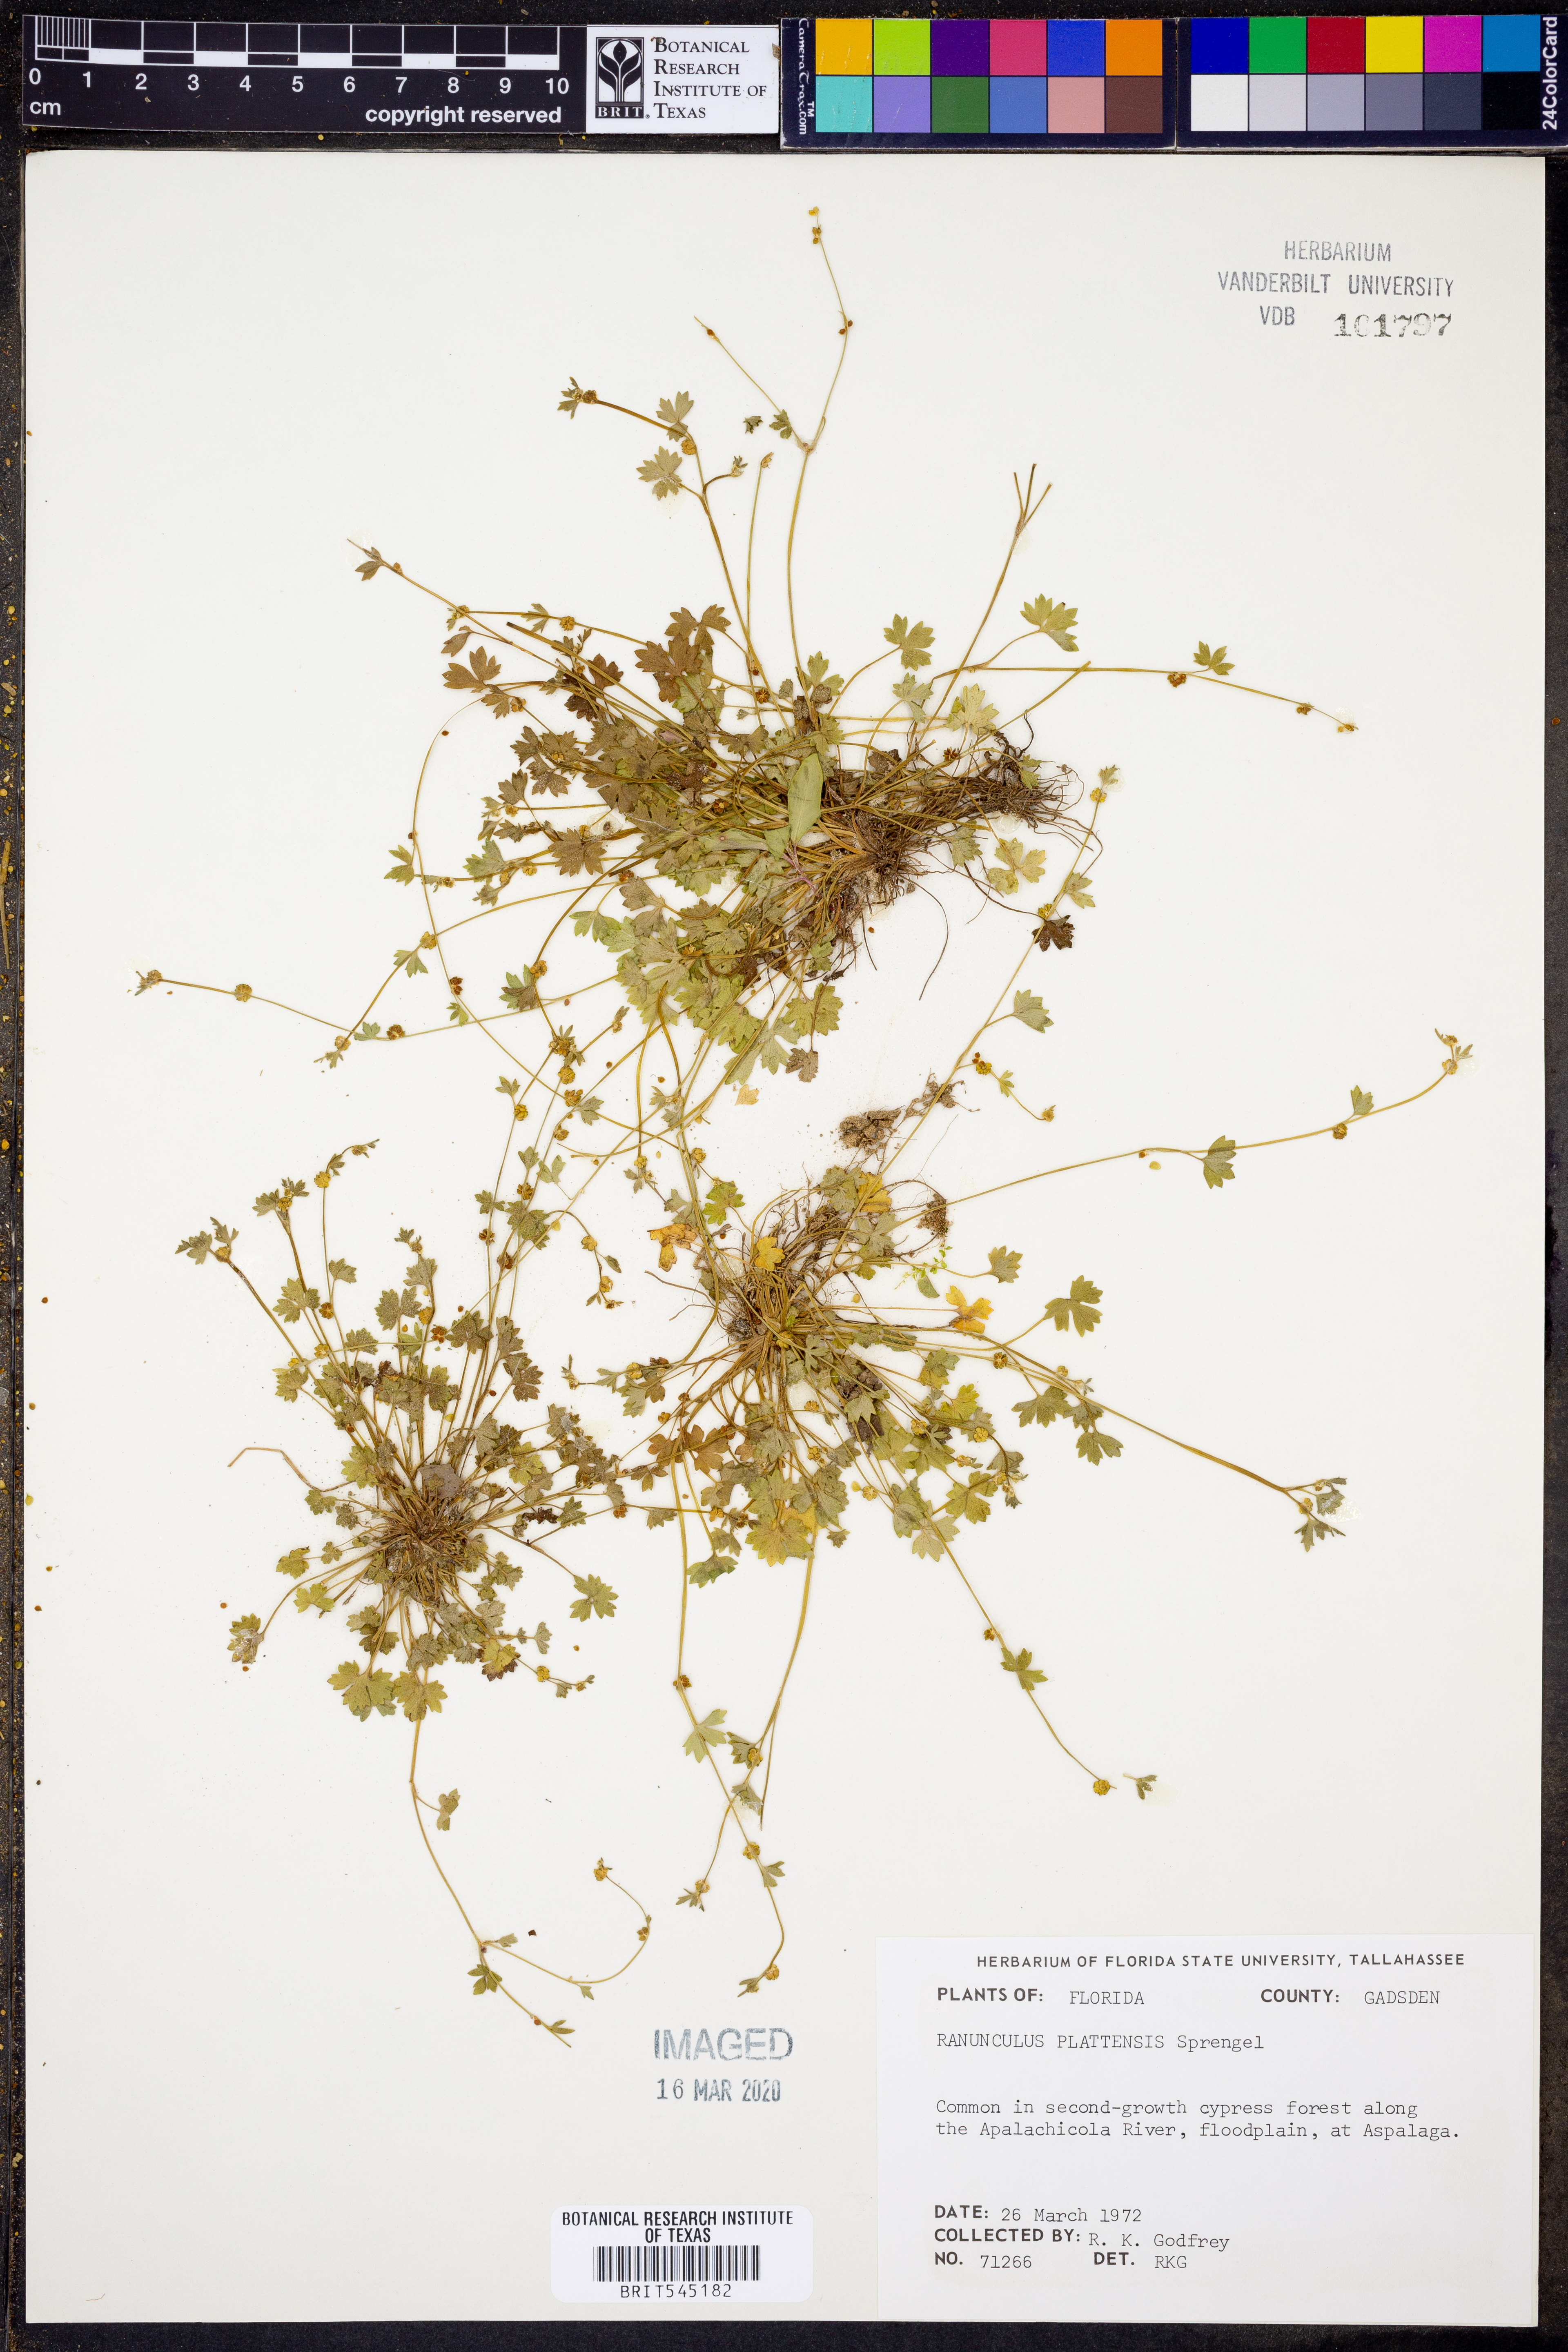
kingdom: Plantae
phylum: Tracheophyta
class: Magnoliopsida
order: Ranunculales
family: Ranunculaceae
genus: Ranunculus
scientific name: Ranunculus platensis
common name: Prairie buttercup
